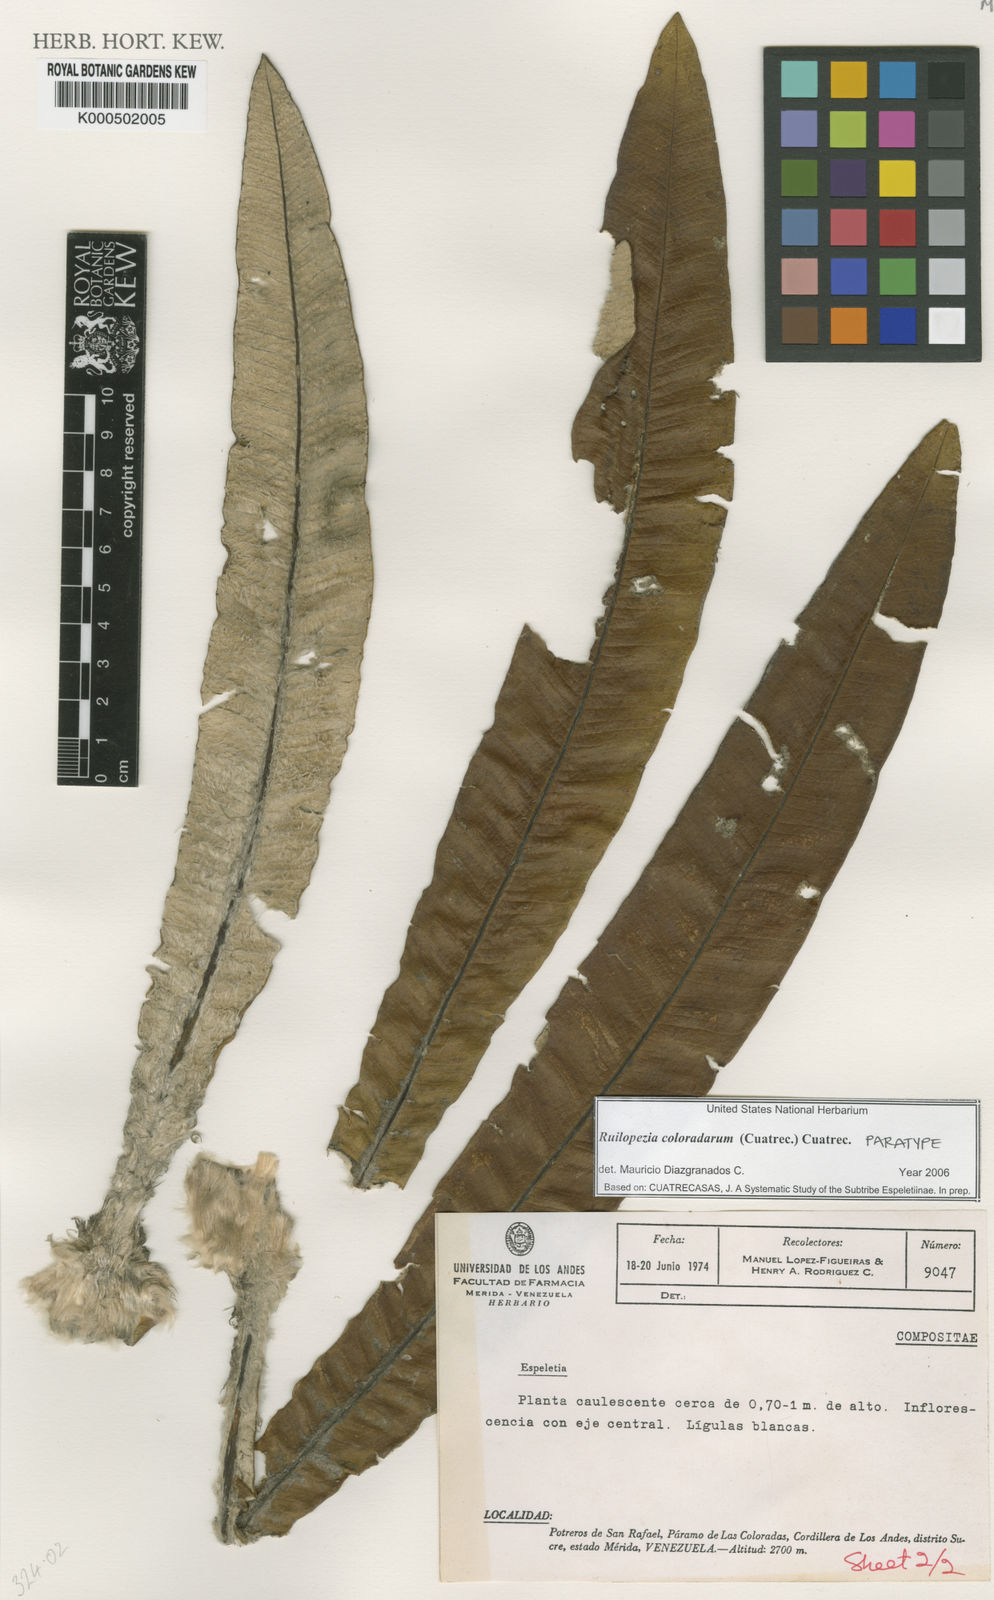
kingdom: Plantae
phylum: Tracheophyta
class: Magnoliopsida
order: Asterales
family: Asteraceae
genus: Espeletia
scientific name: Espeletia coloradarum
